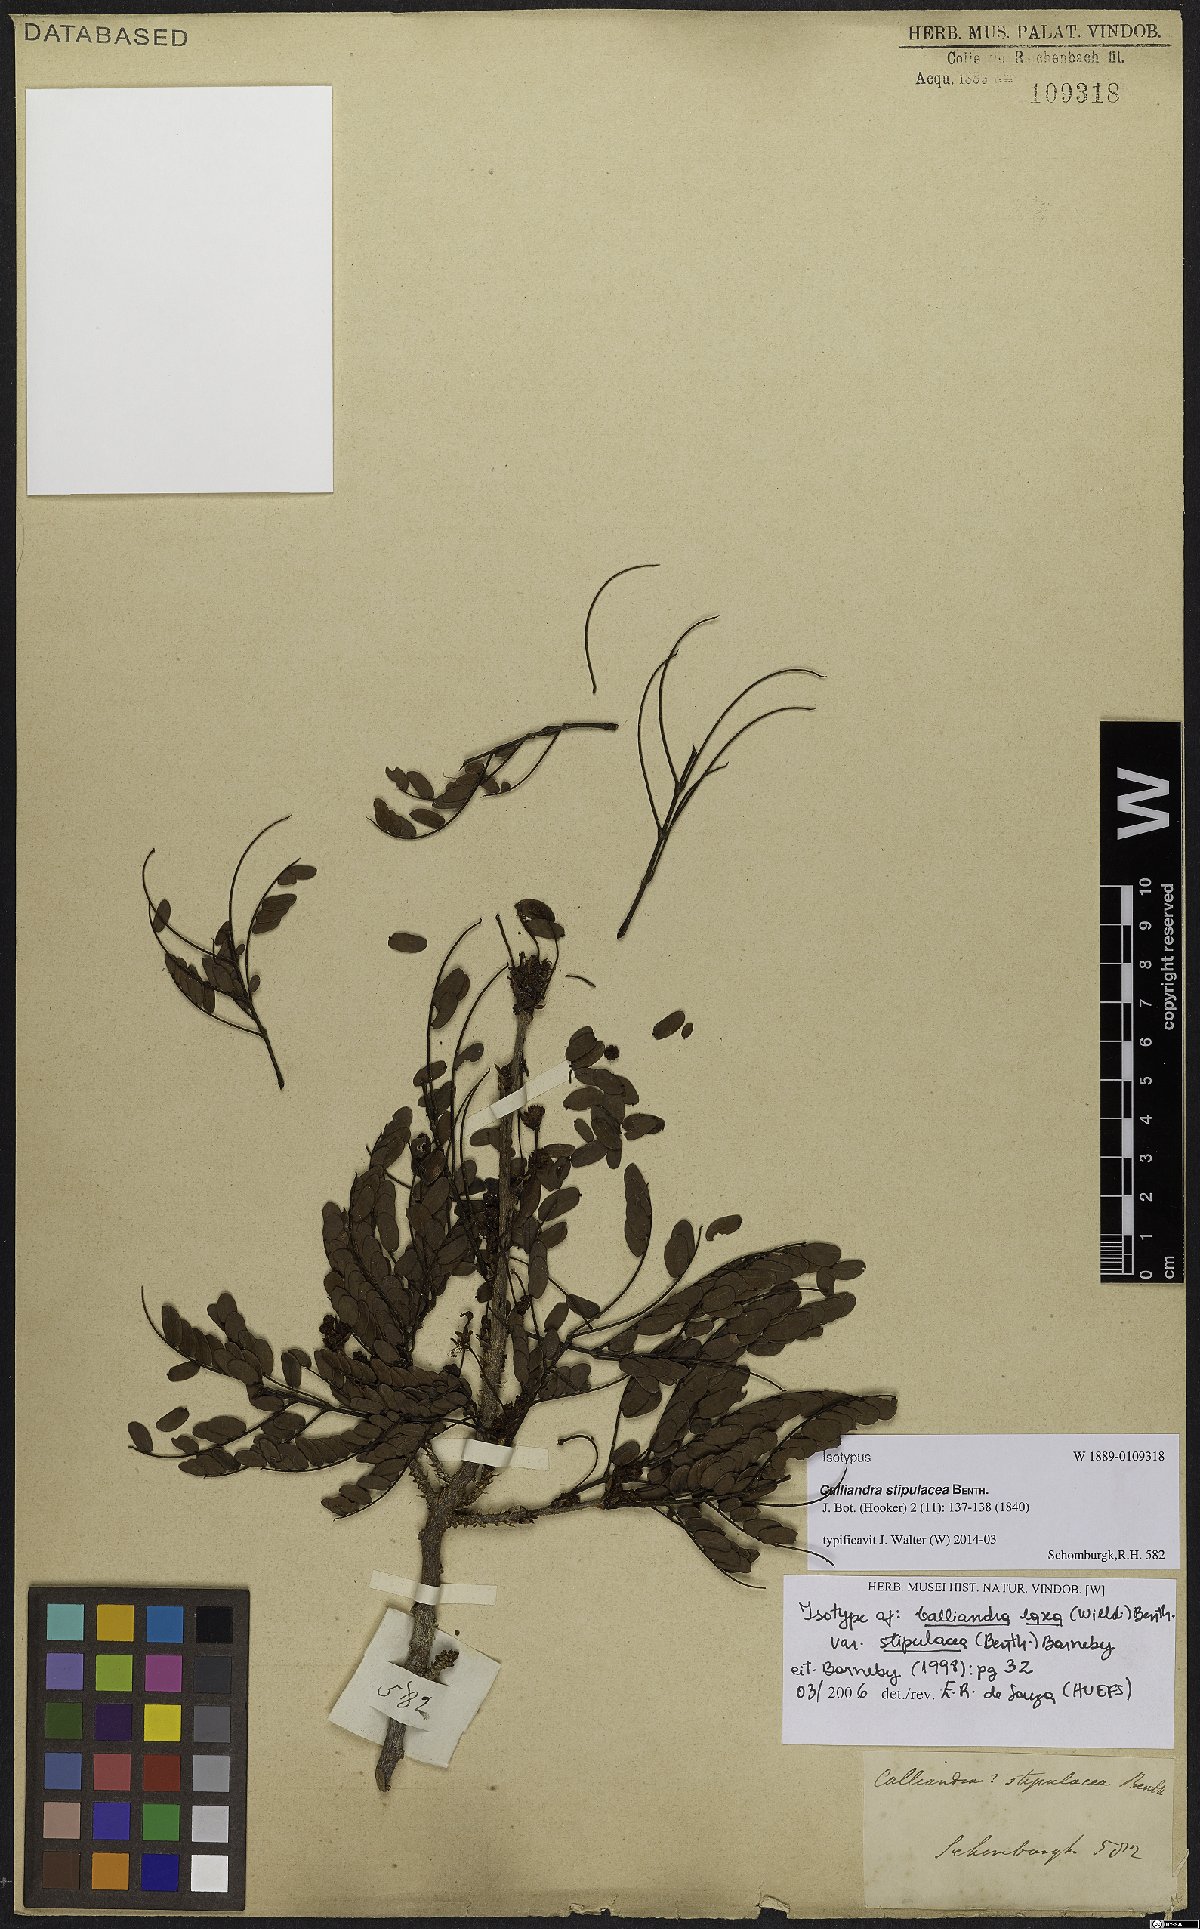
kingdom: Plantae
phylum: Tracheophyta
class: Magnoliopsida
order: Fabales
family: Fabaceae
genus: Calliandra
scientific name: Calliandra laxa
